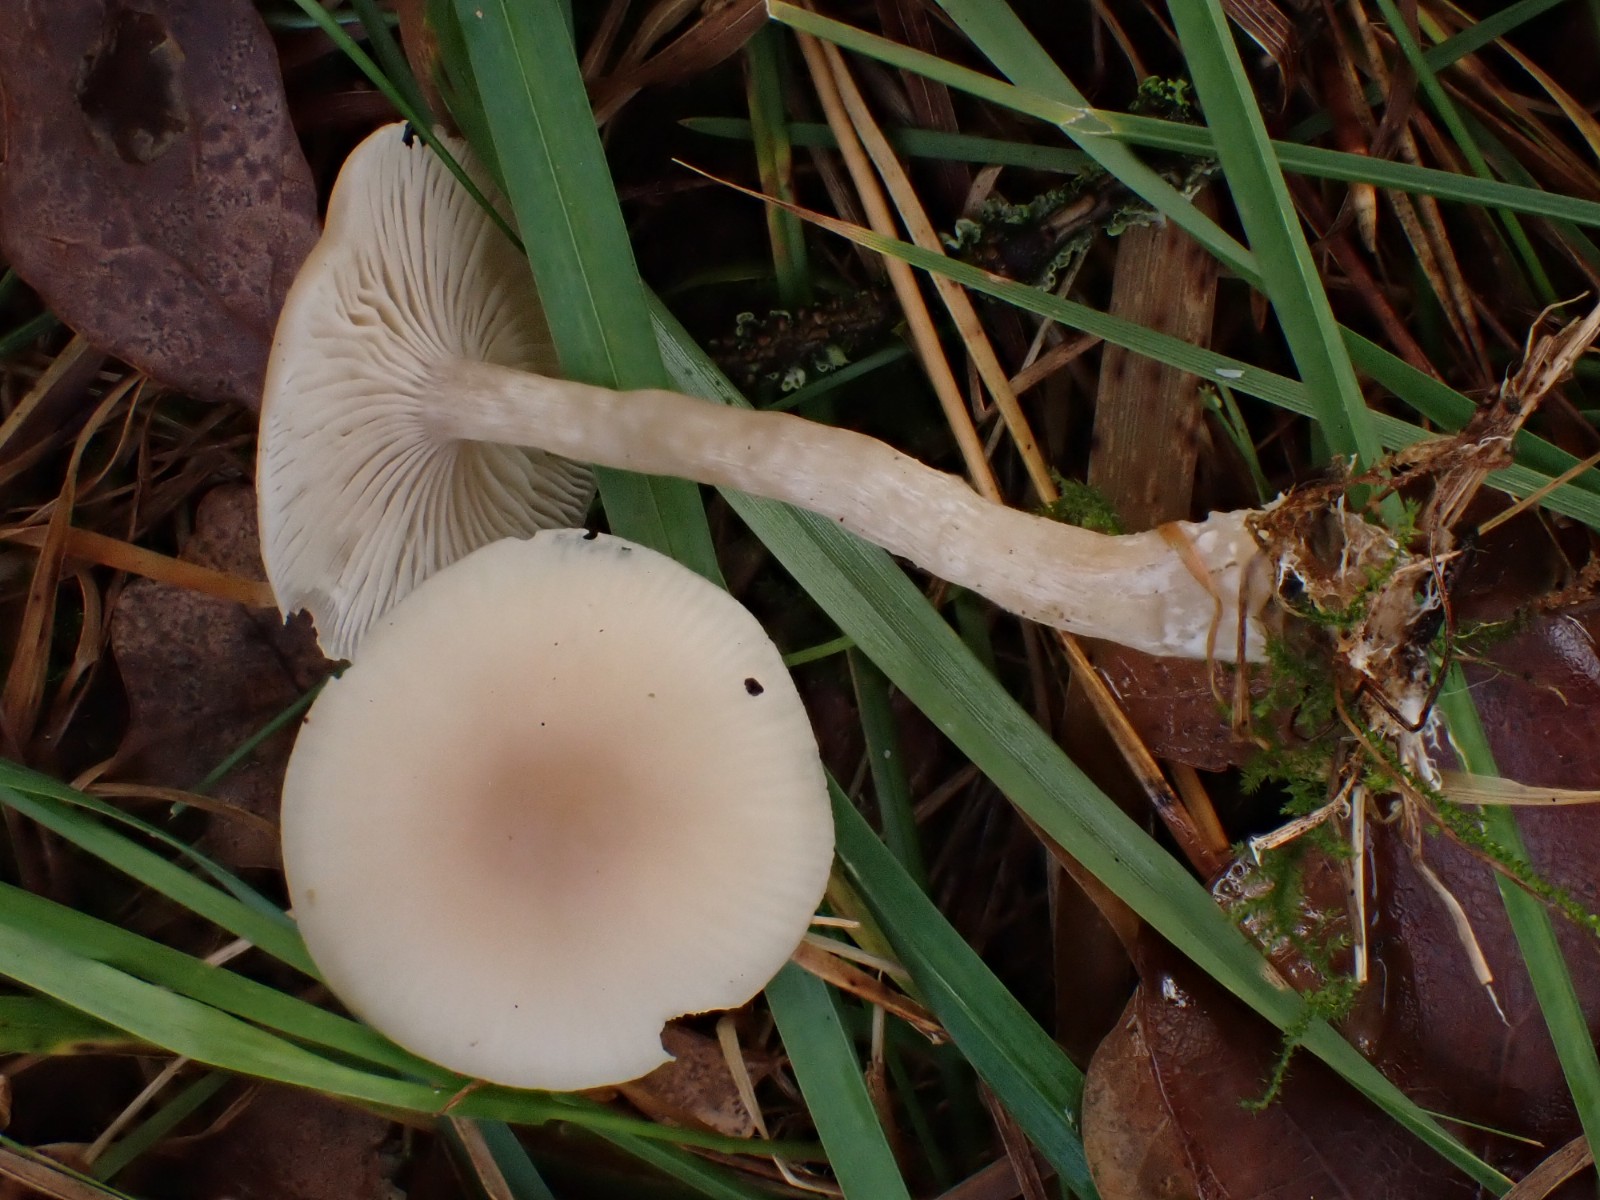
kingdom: Fungi
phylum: Basidiomycota
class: Agaricomycetes
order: Agaricales
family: Tricholomataceae
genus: Clitocybe
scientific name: Clitocybe fragrans
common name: vellugtende tragthat
